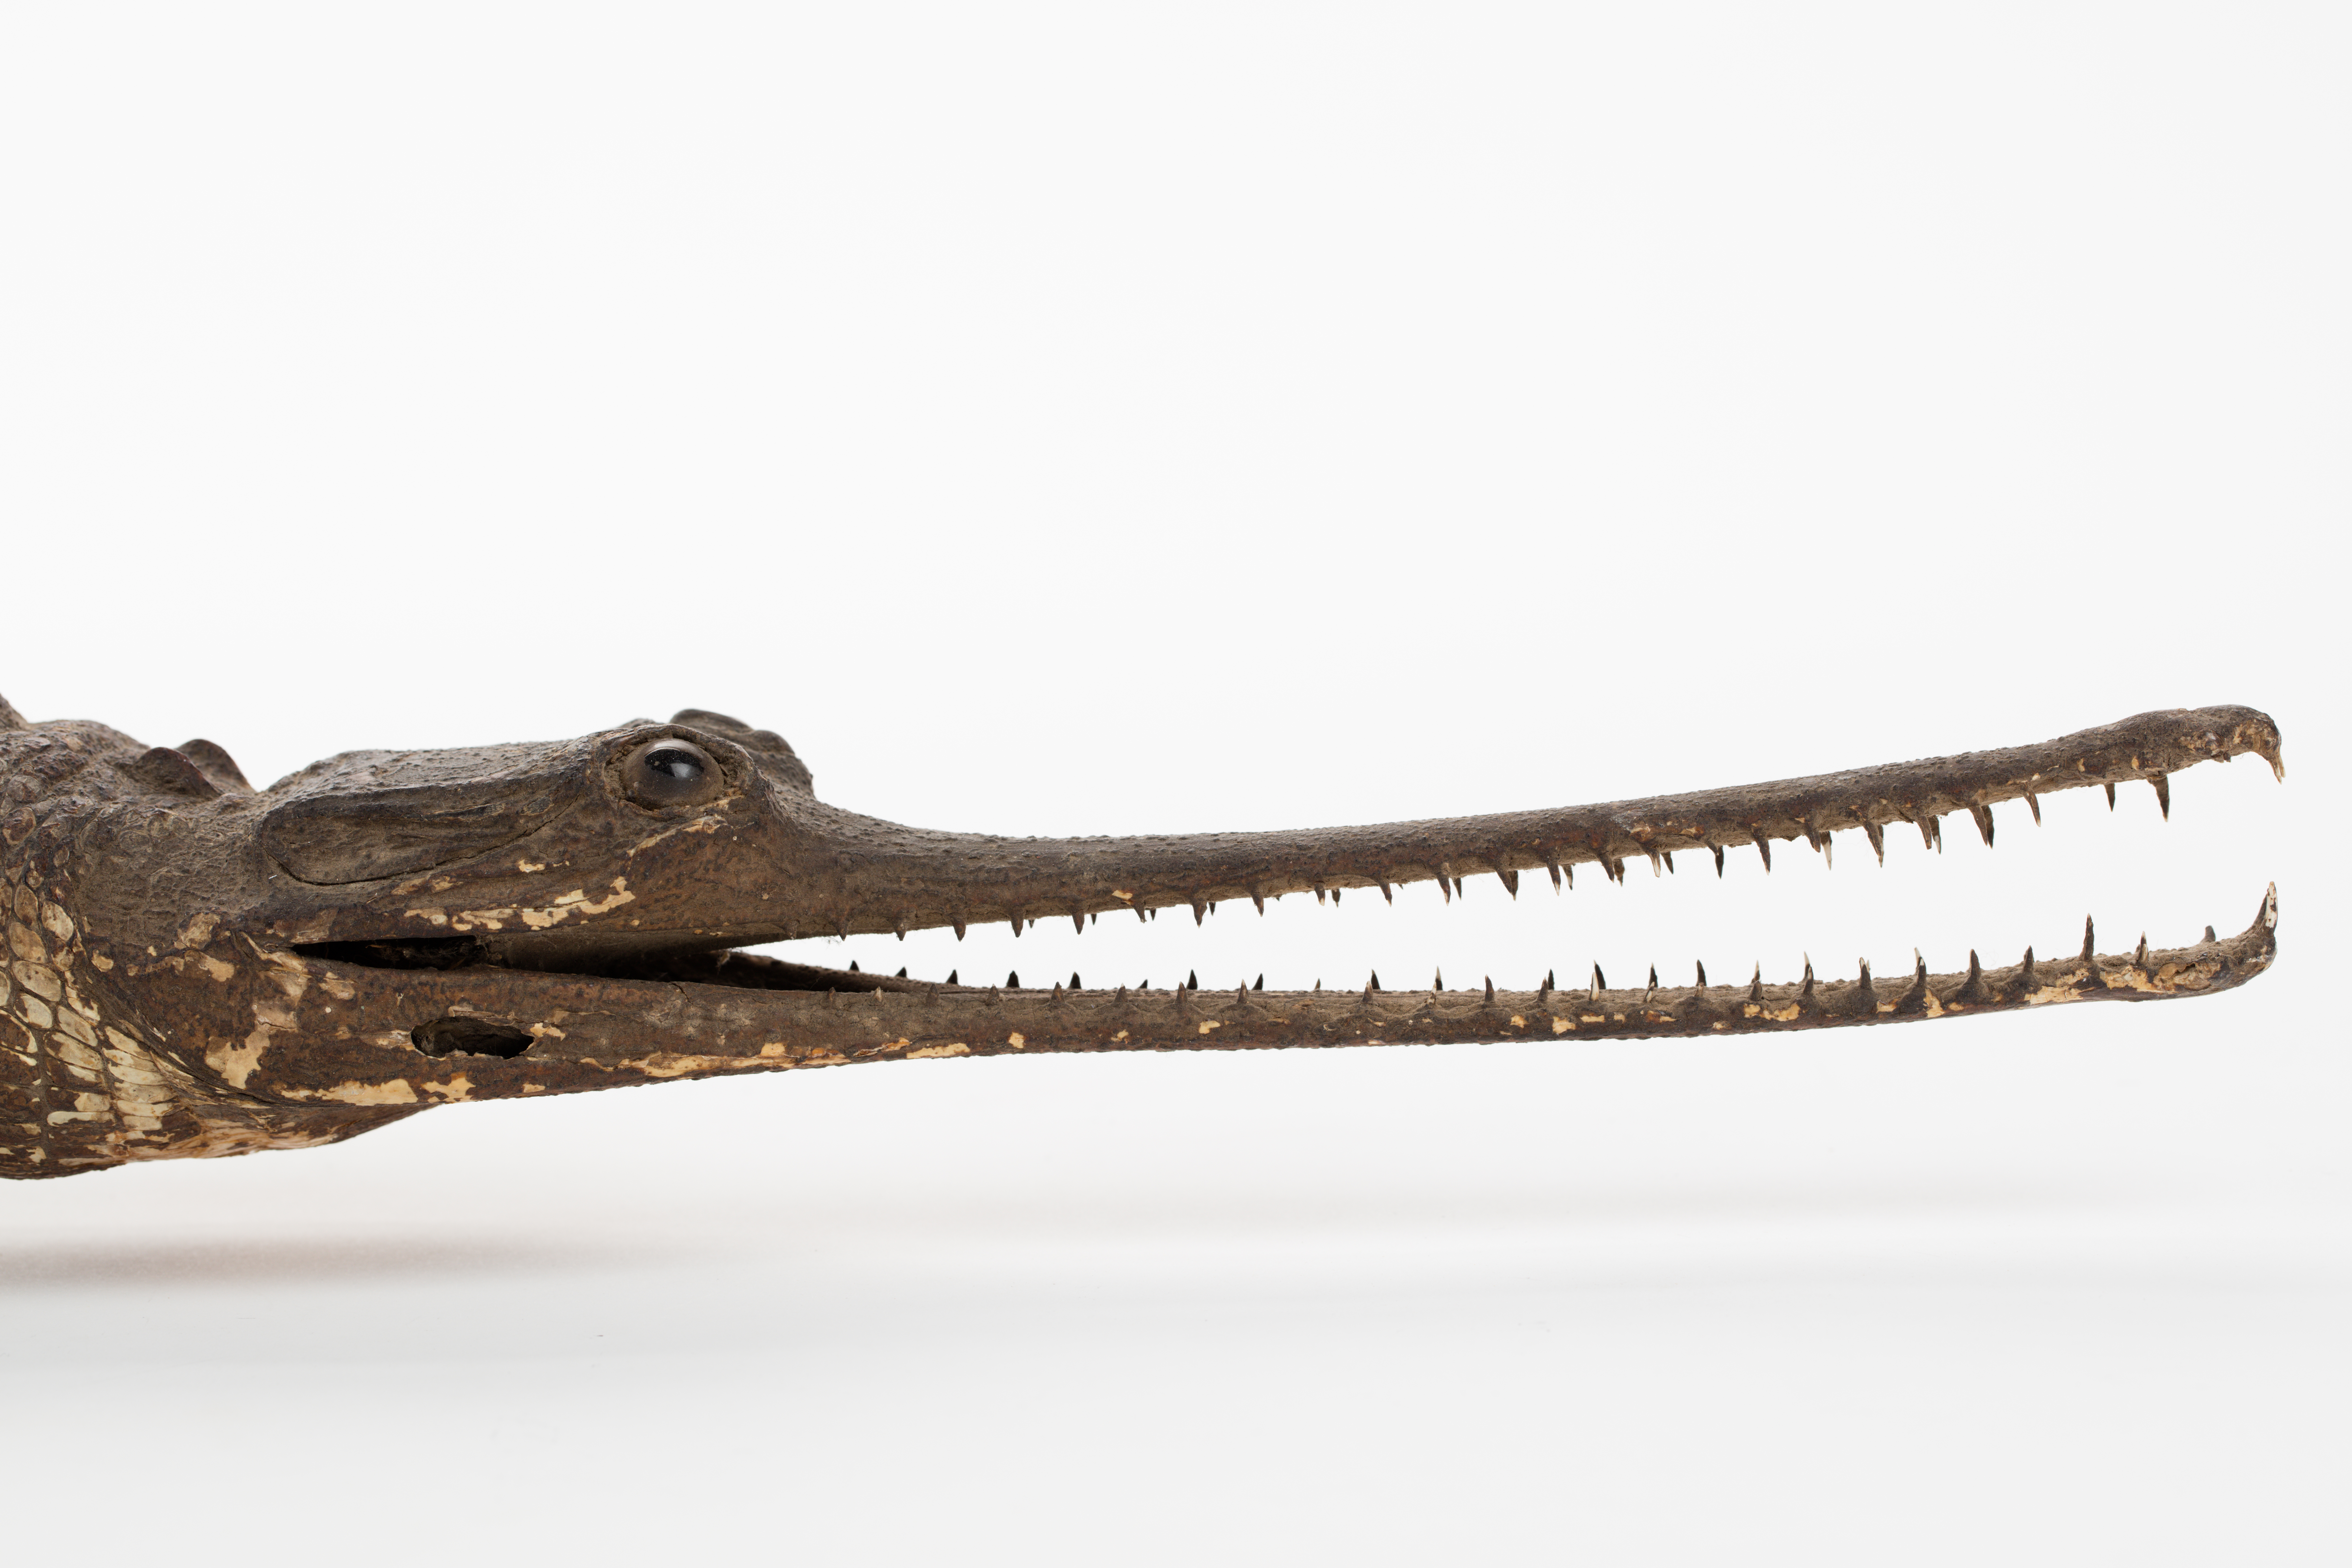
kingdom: Animalia
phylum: Chordata
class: Crocodylia
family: Gavialidae
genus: Gavialis
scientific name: Gavialis gangeticus
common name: Gharial
